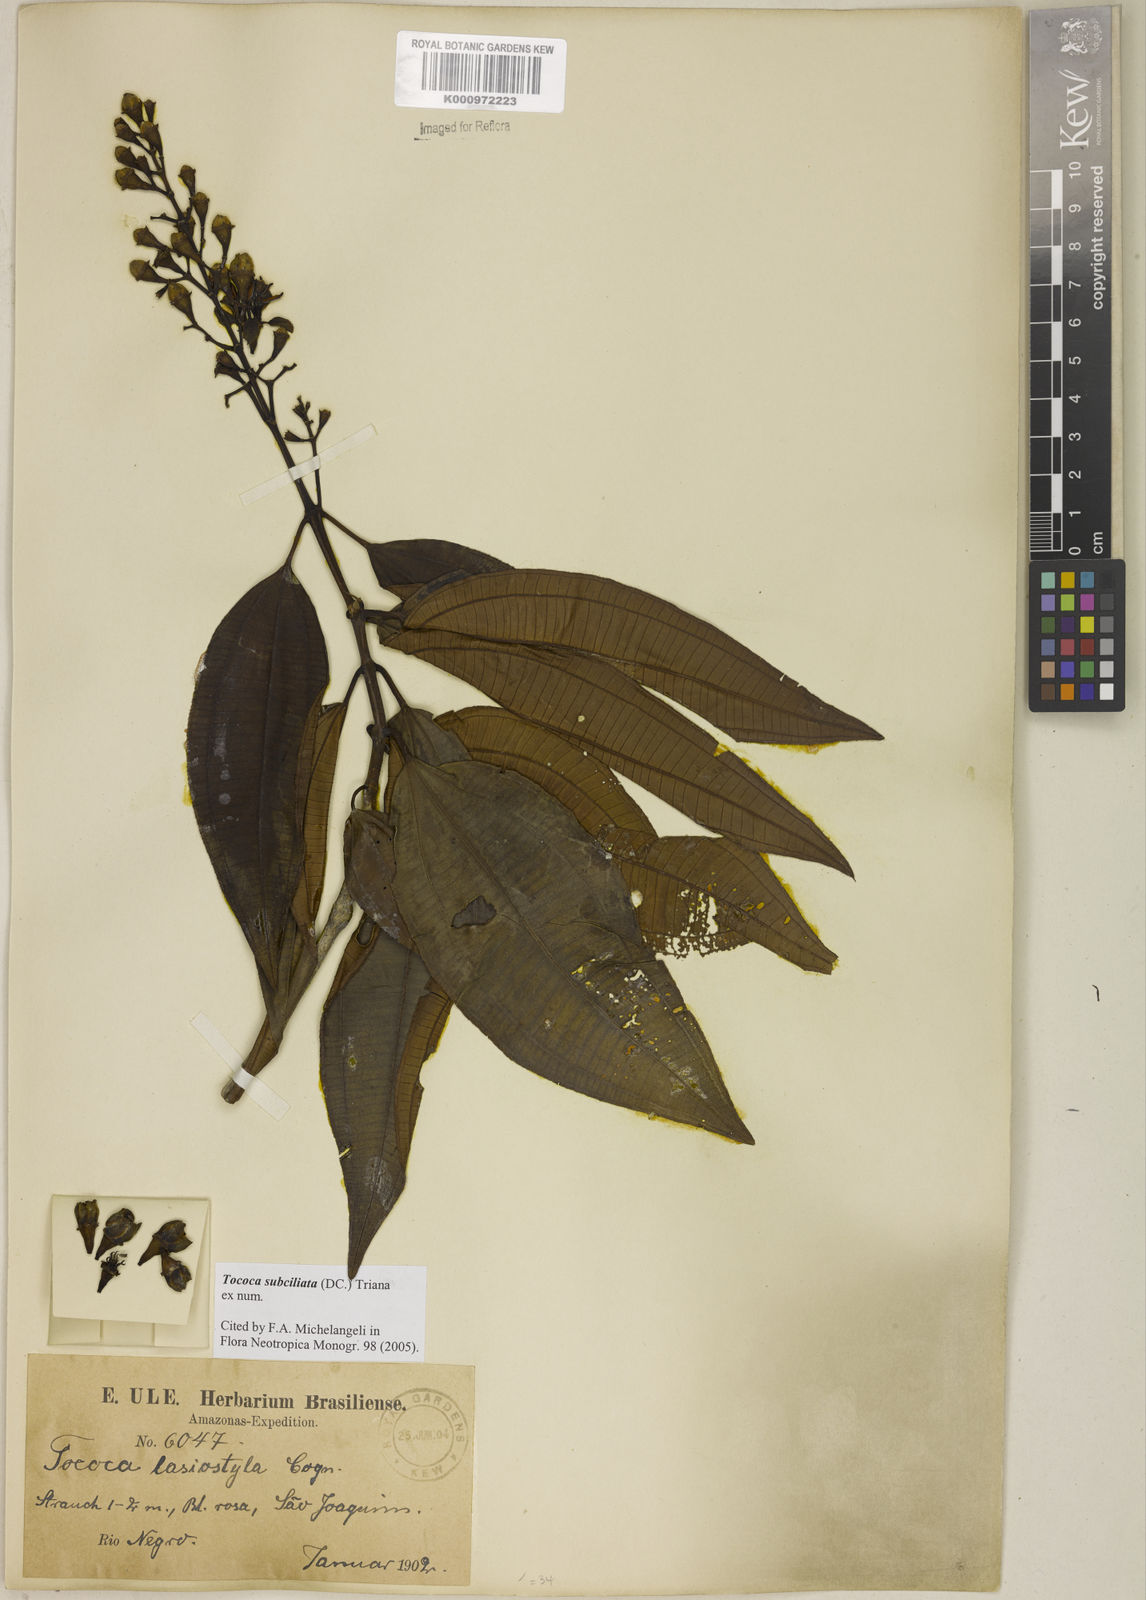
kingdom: Plantae
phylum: Tracheophyta
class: Magnoliopsida
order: Myrtales
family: Melastomataceae
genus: Miconia
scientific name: Miconia subciliata
